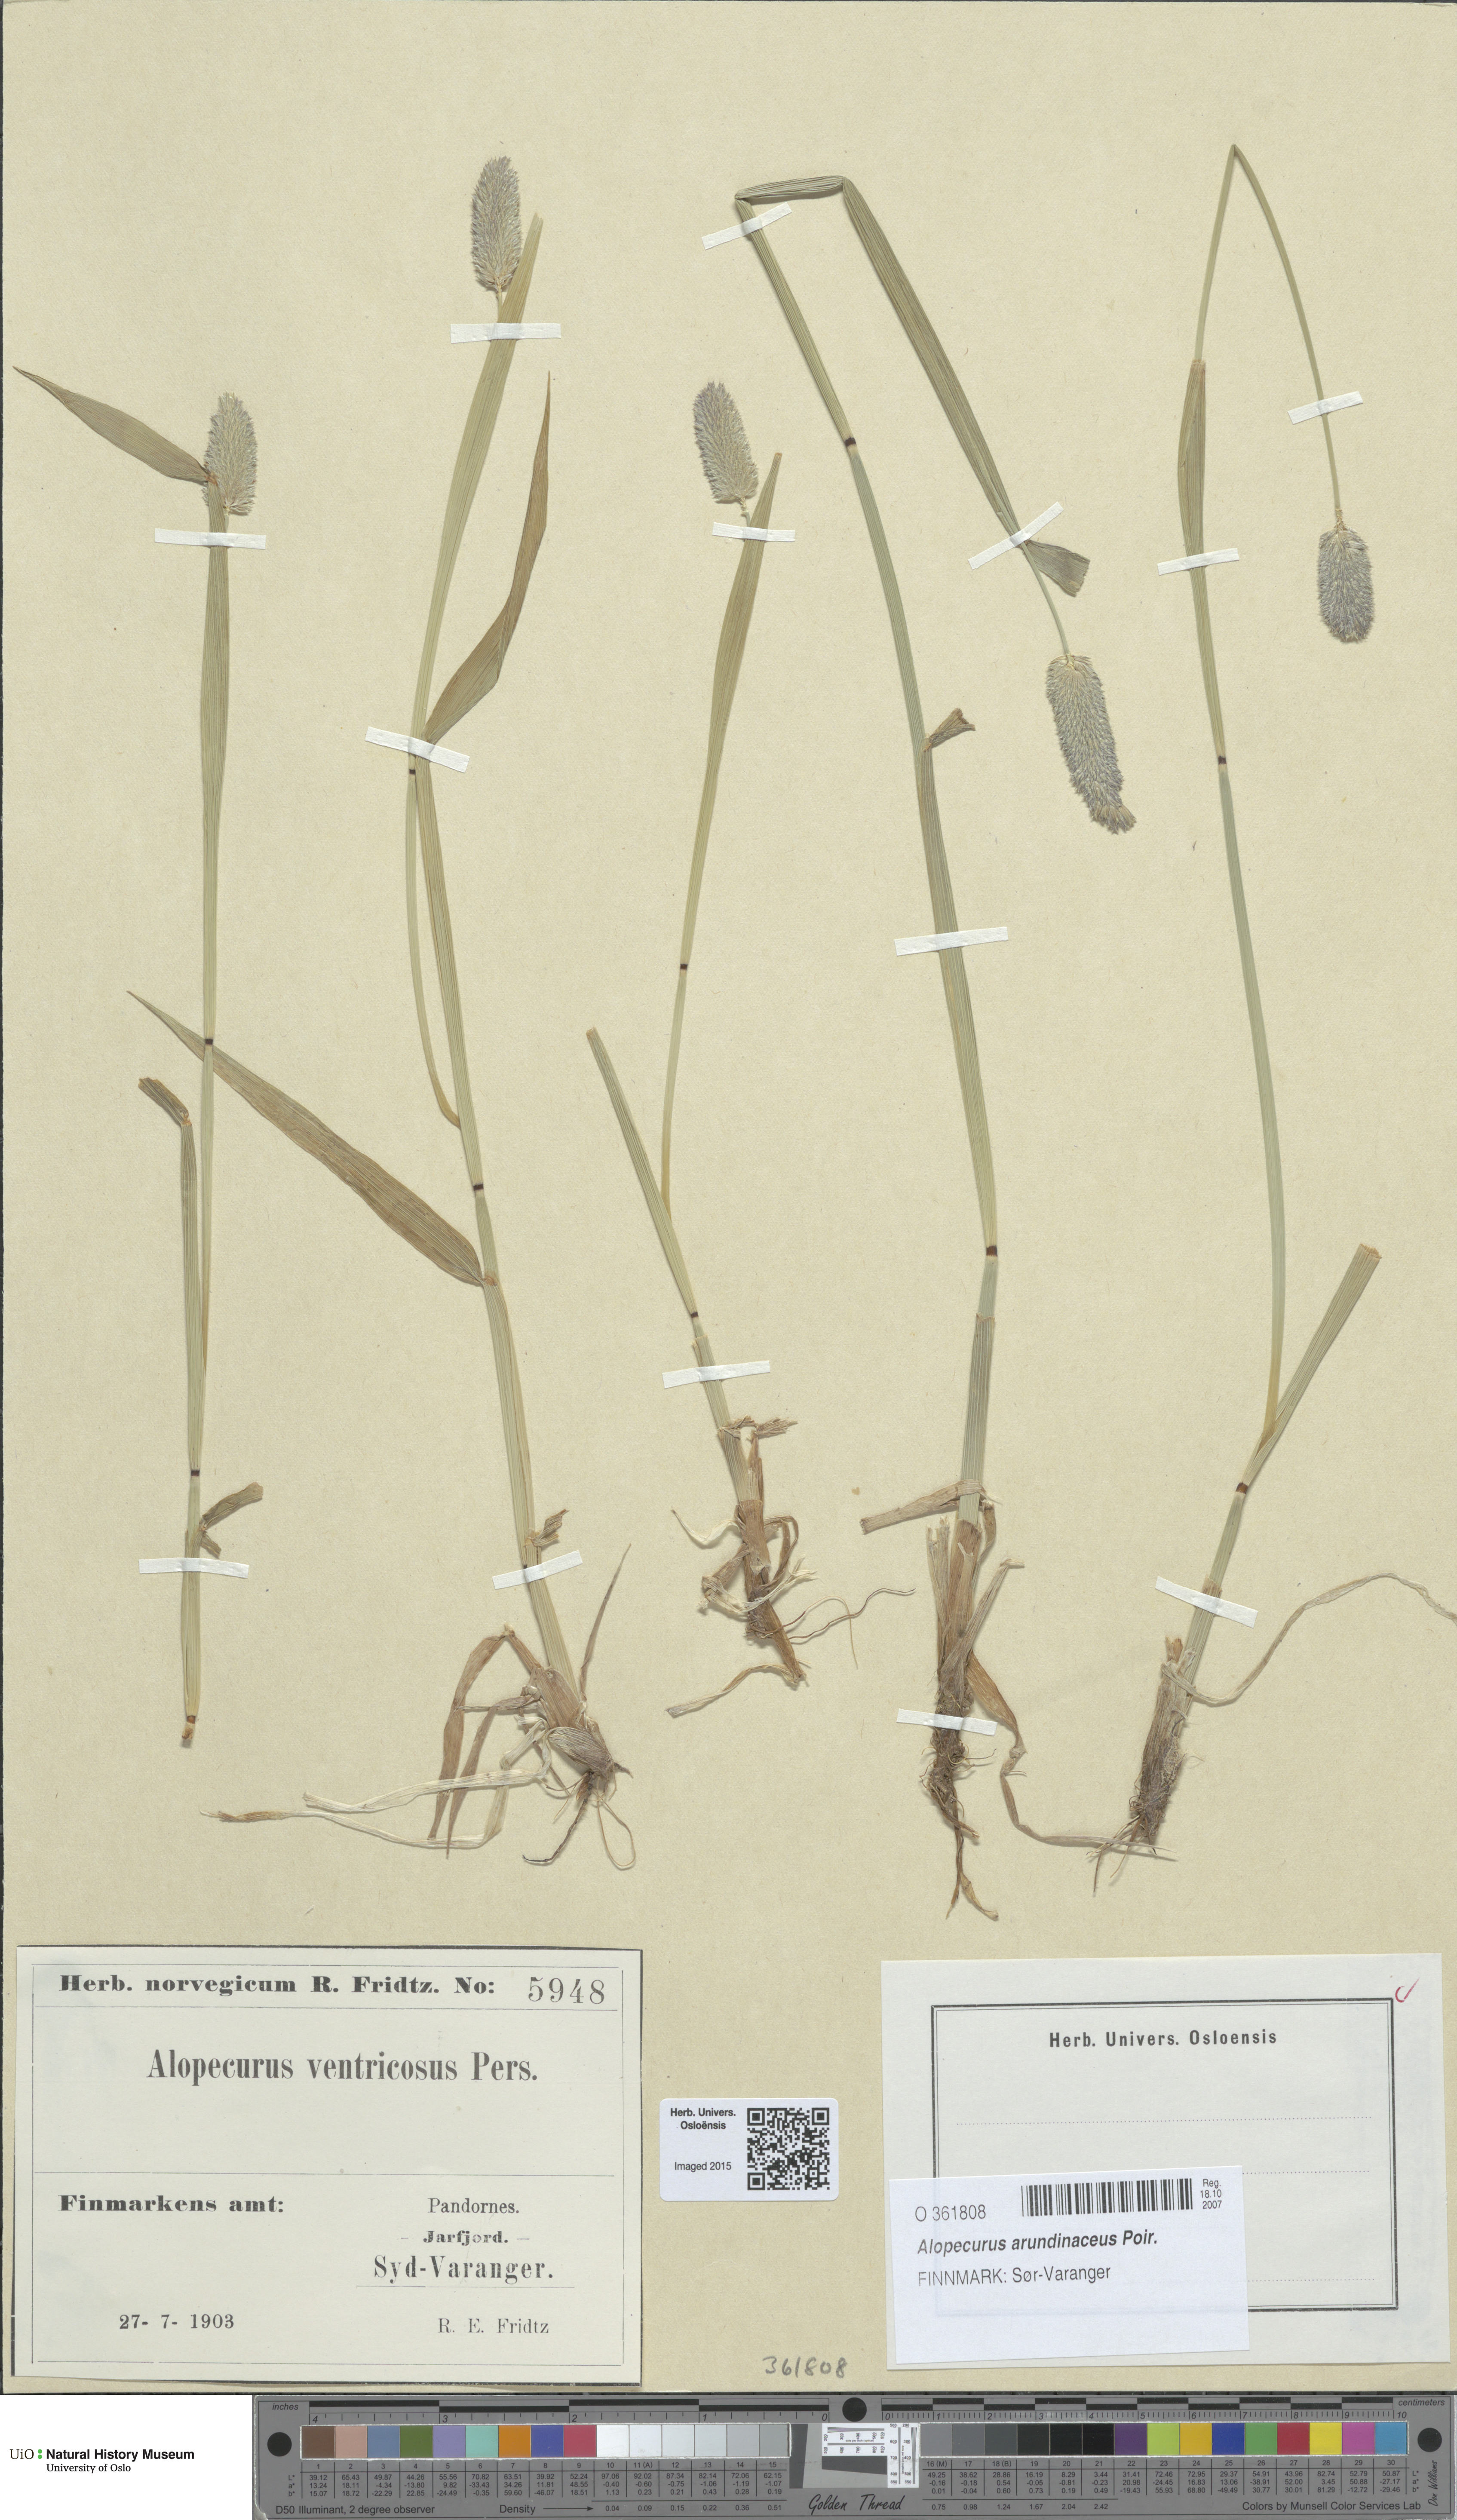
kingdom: Plantae
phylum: Tracheophyta
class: Liliopsida
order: Poales
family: Poaceae
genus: Alopecurus
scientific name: Alopecurus arundinaceus
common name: Creeping meadow foxtail
